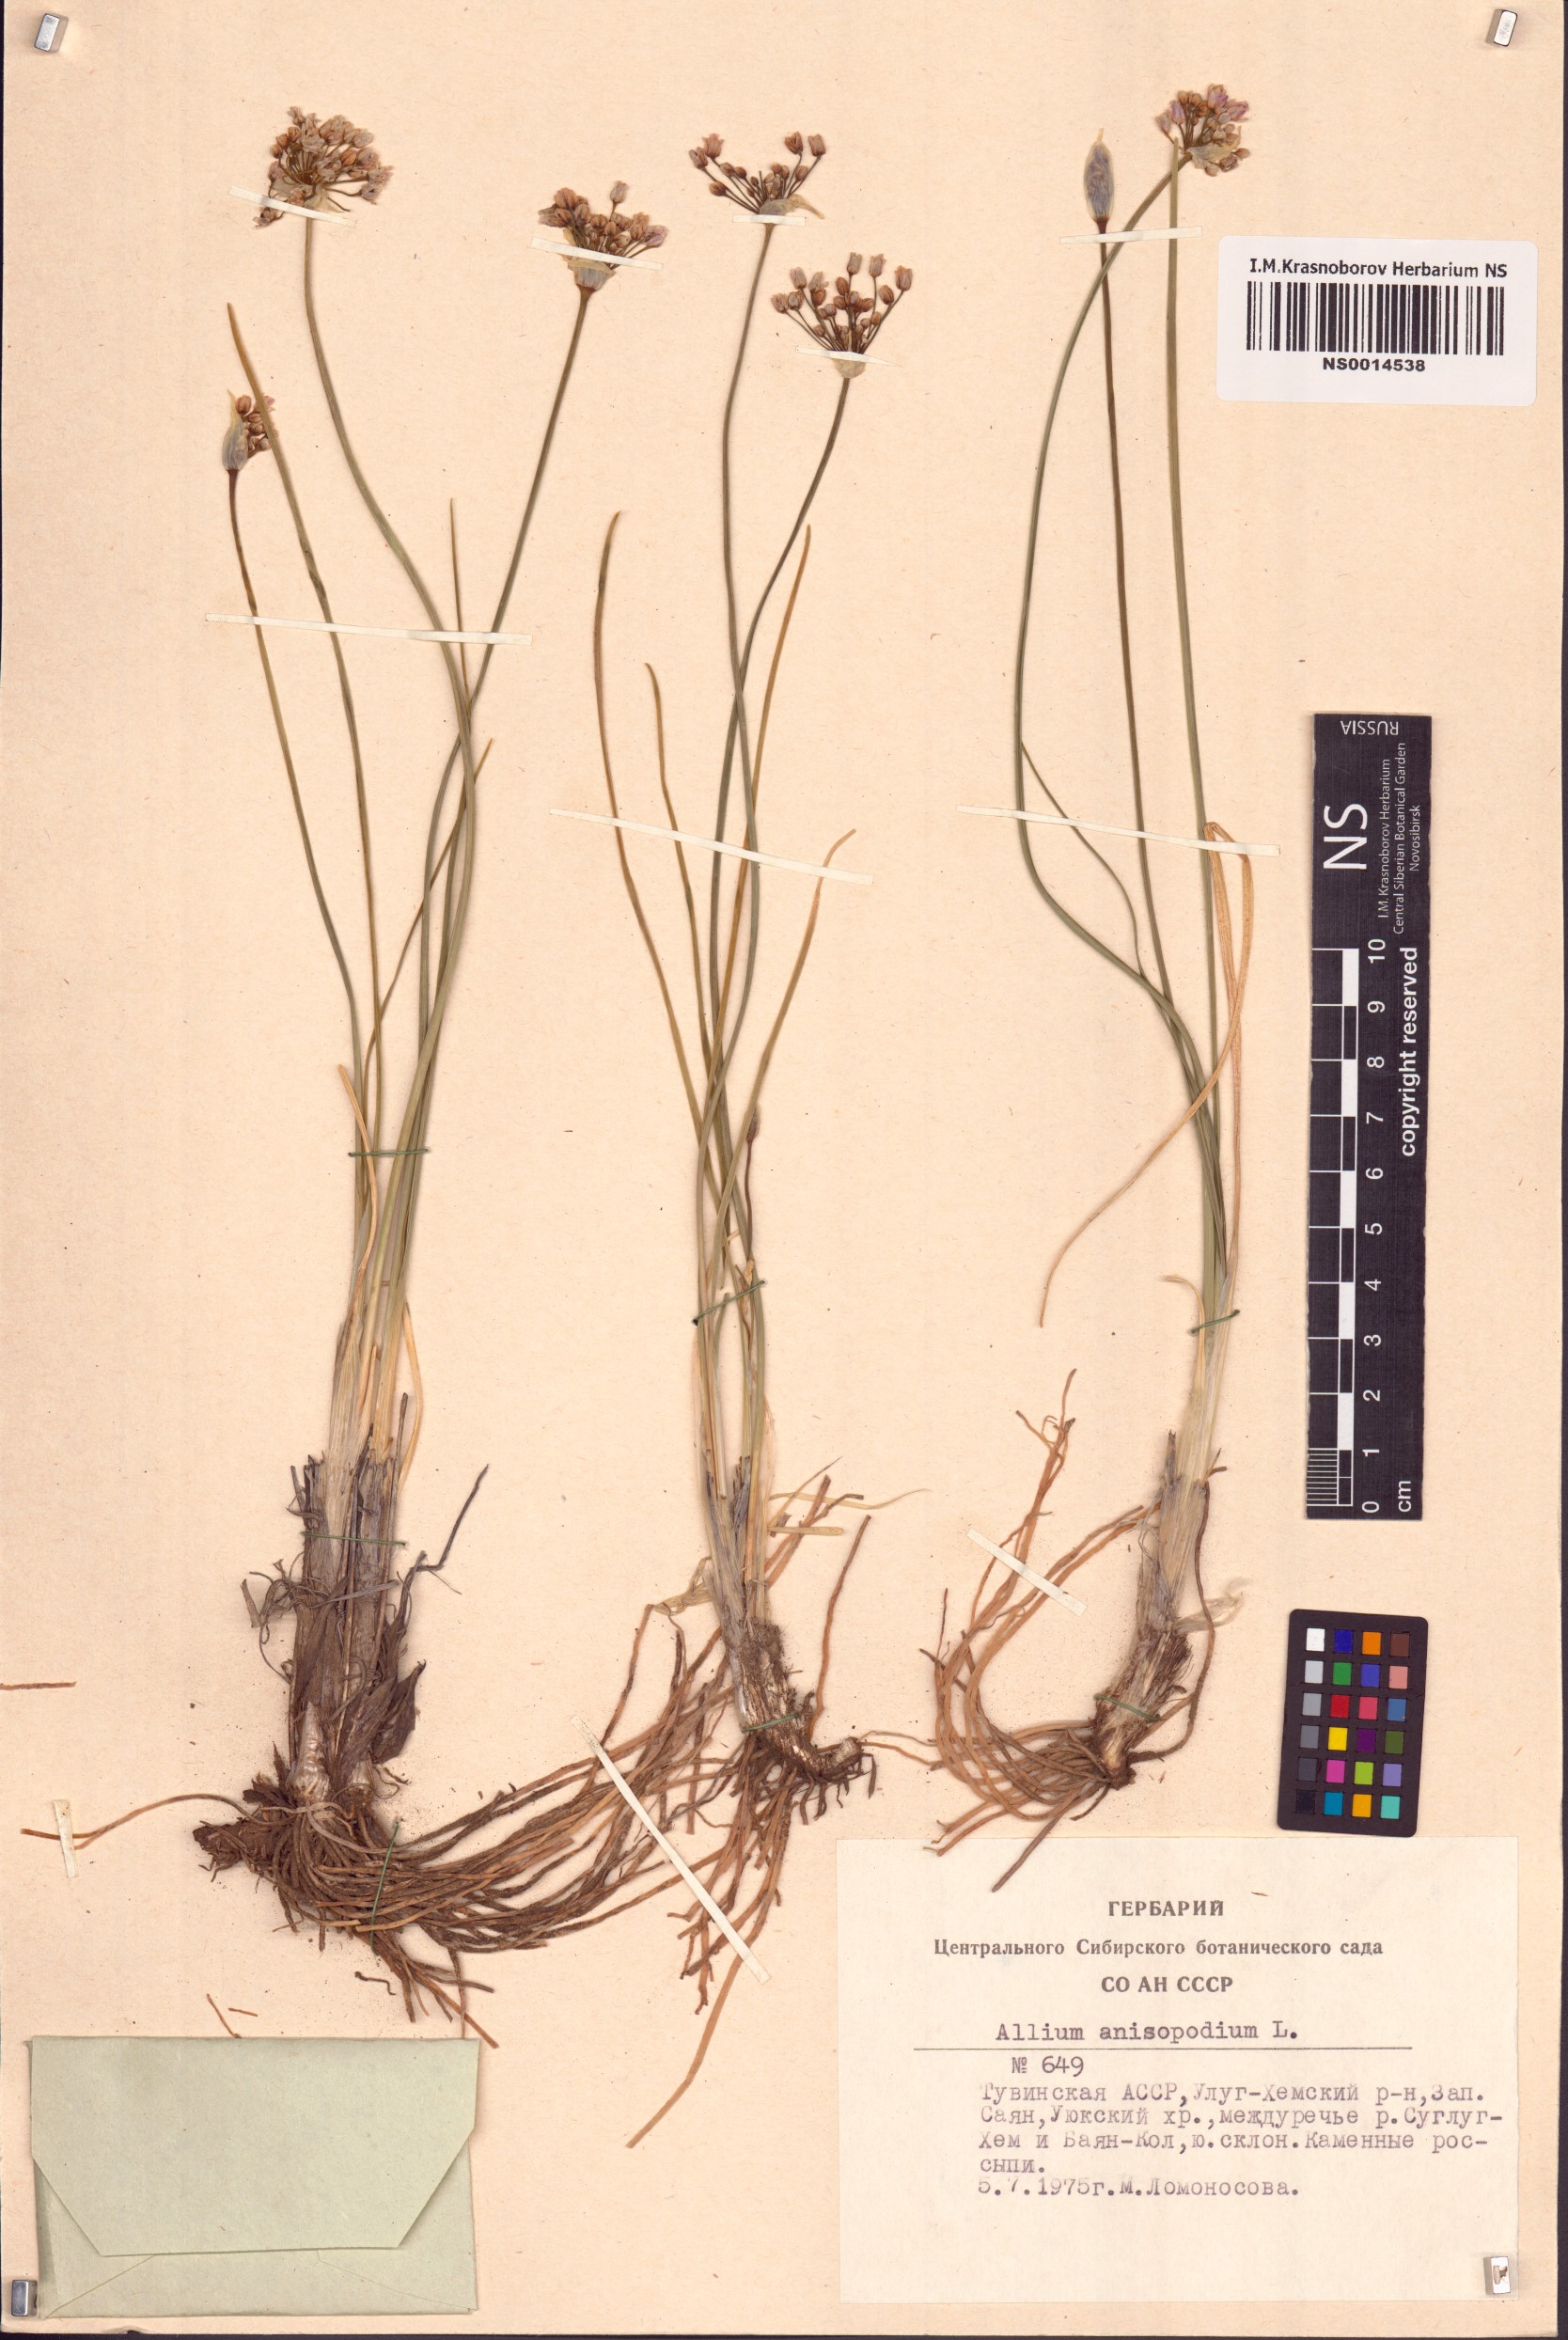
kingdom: Plantae
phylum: Tracheophyta
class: Liliopsida
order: Asparagales
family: Amaryllidaceae
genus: Allium
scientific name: Allium anisopodium
